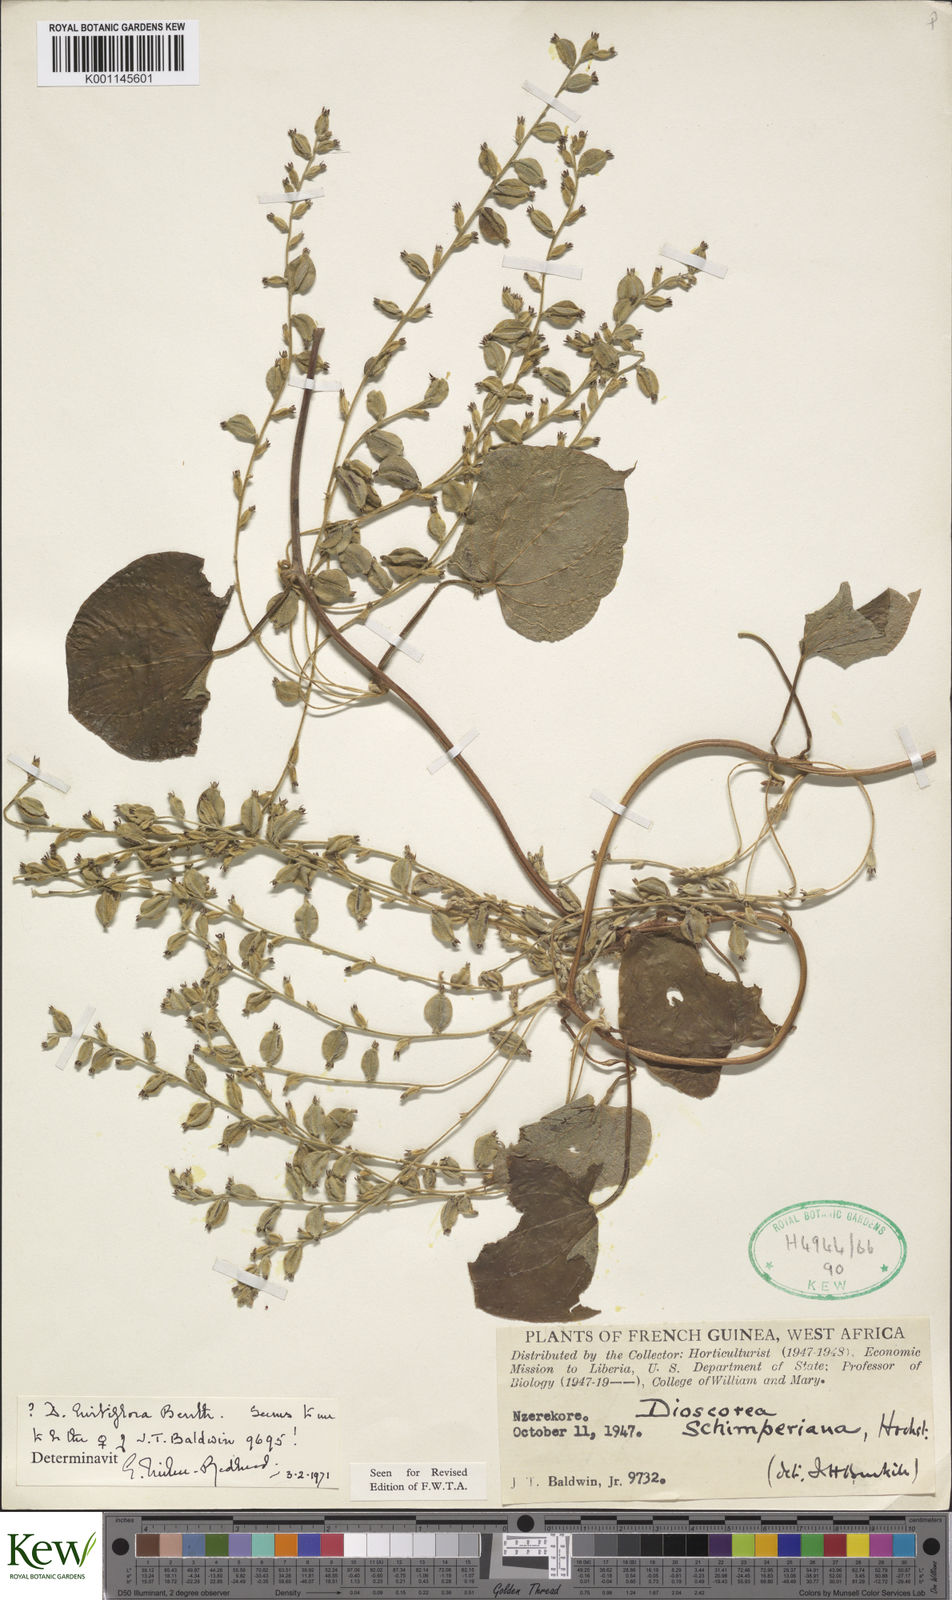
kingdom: Plantae
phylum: Tracheophyta
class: Liliopsida
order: Dioscoreales
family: Dioscoreaceae
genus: Dioscorea
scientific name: Dioscorea hirtiflora
